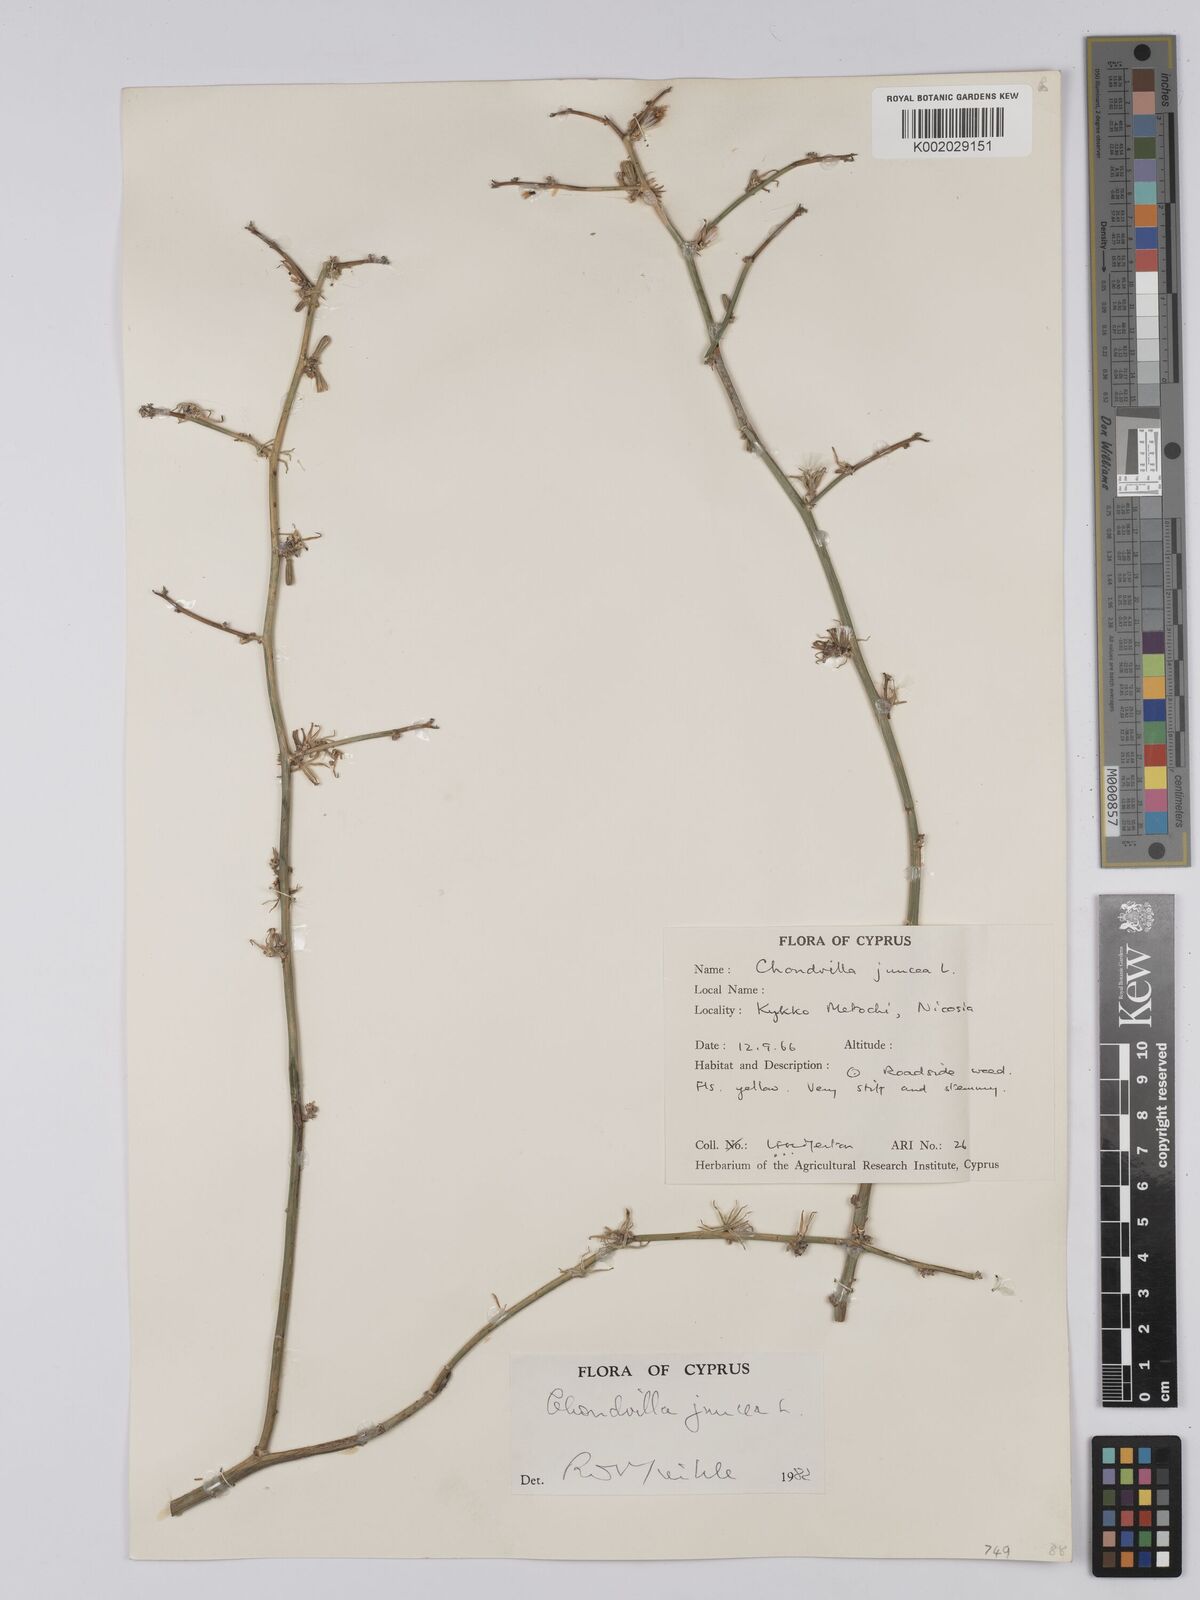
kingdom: Plantae
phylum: Tracheophyta
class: Magnoliopsida
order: Asterales
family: Asteraceae
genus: Chondrilla
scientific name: Chondrilla juncea
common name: Skeleton weed
